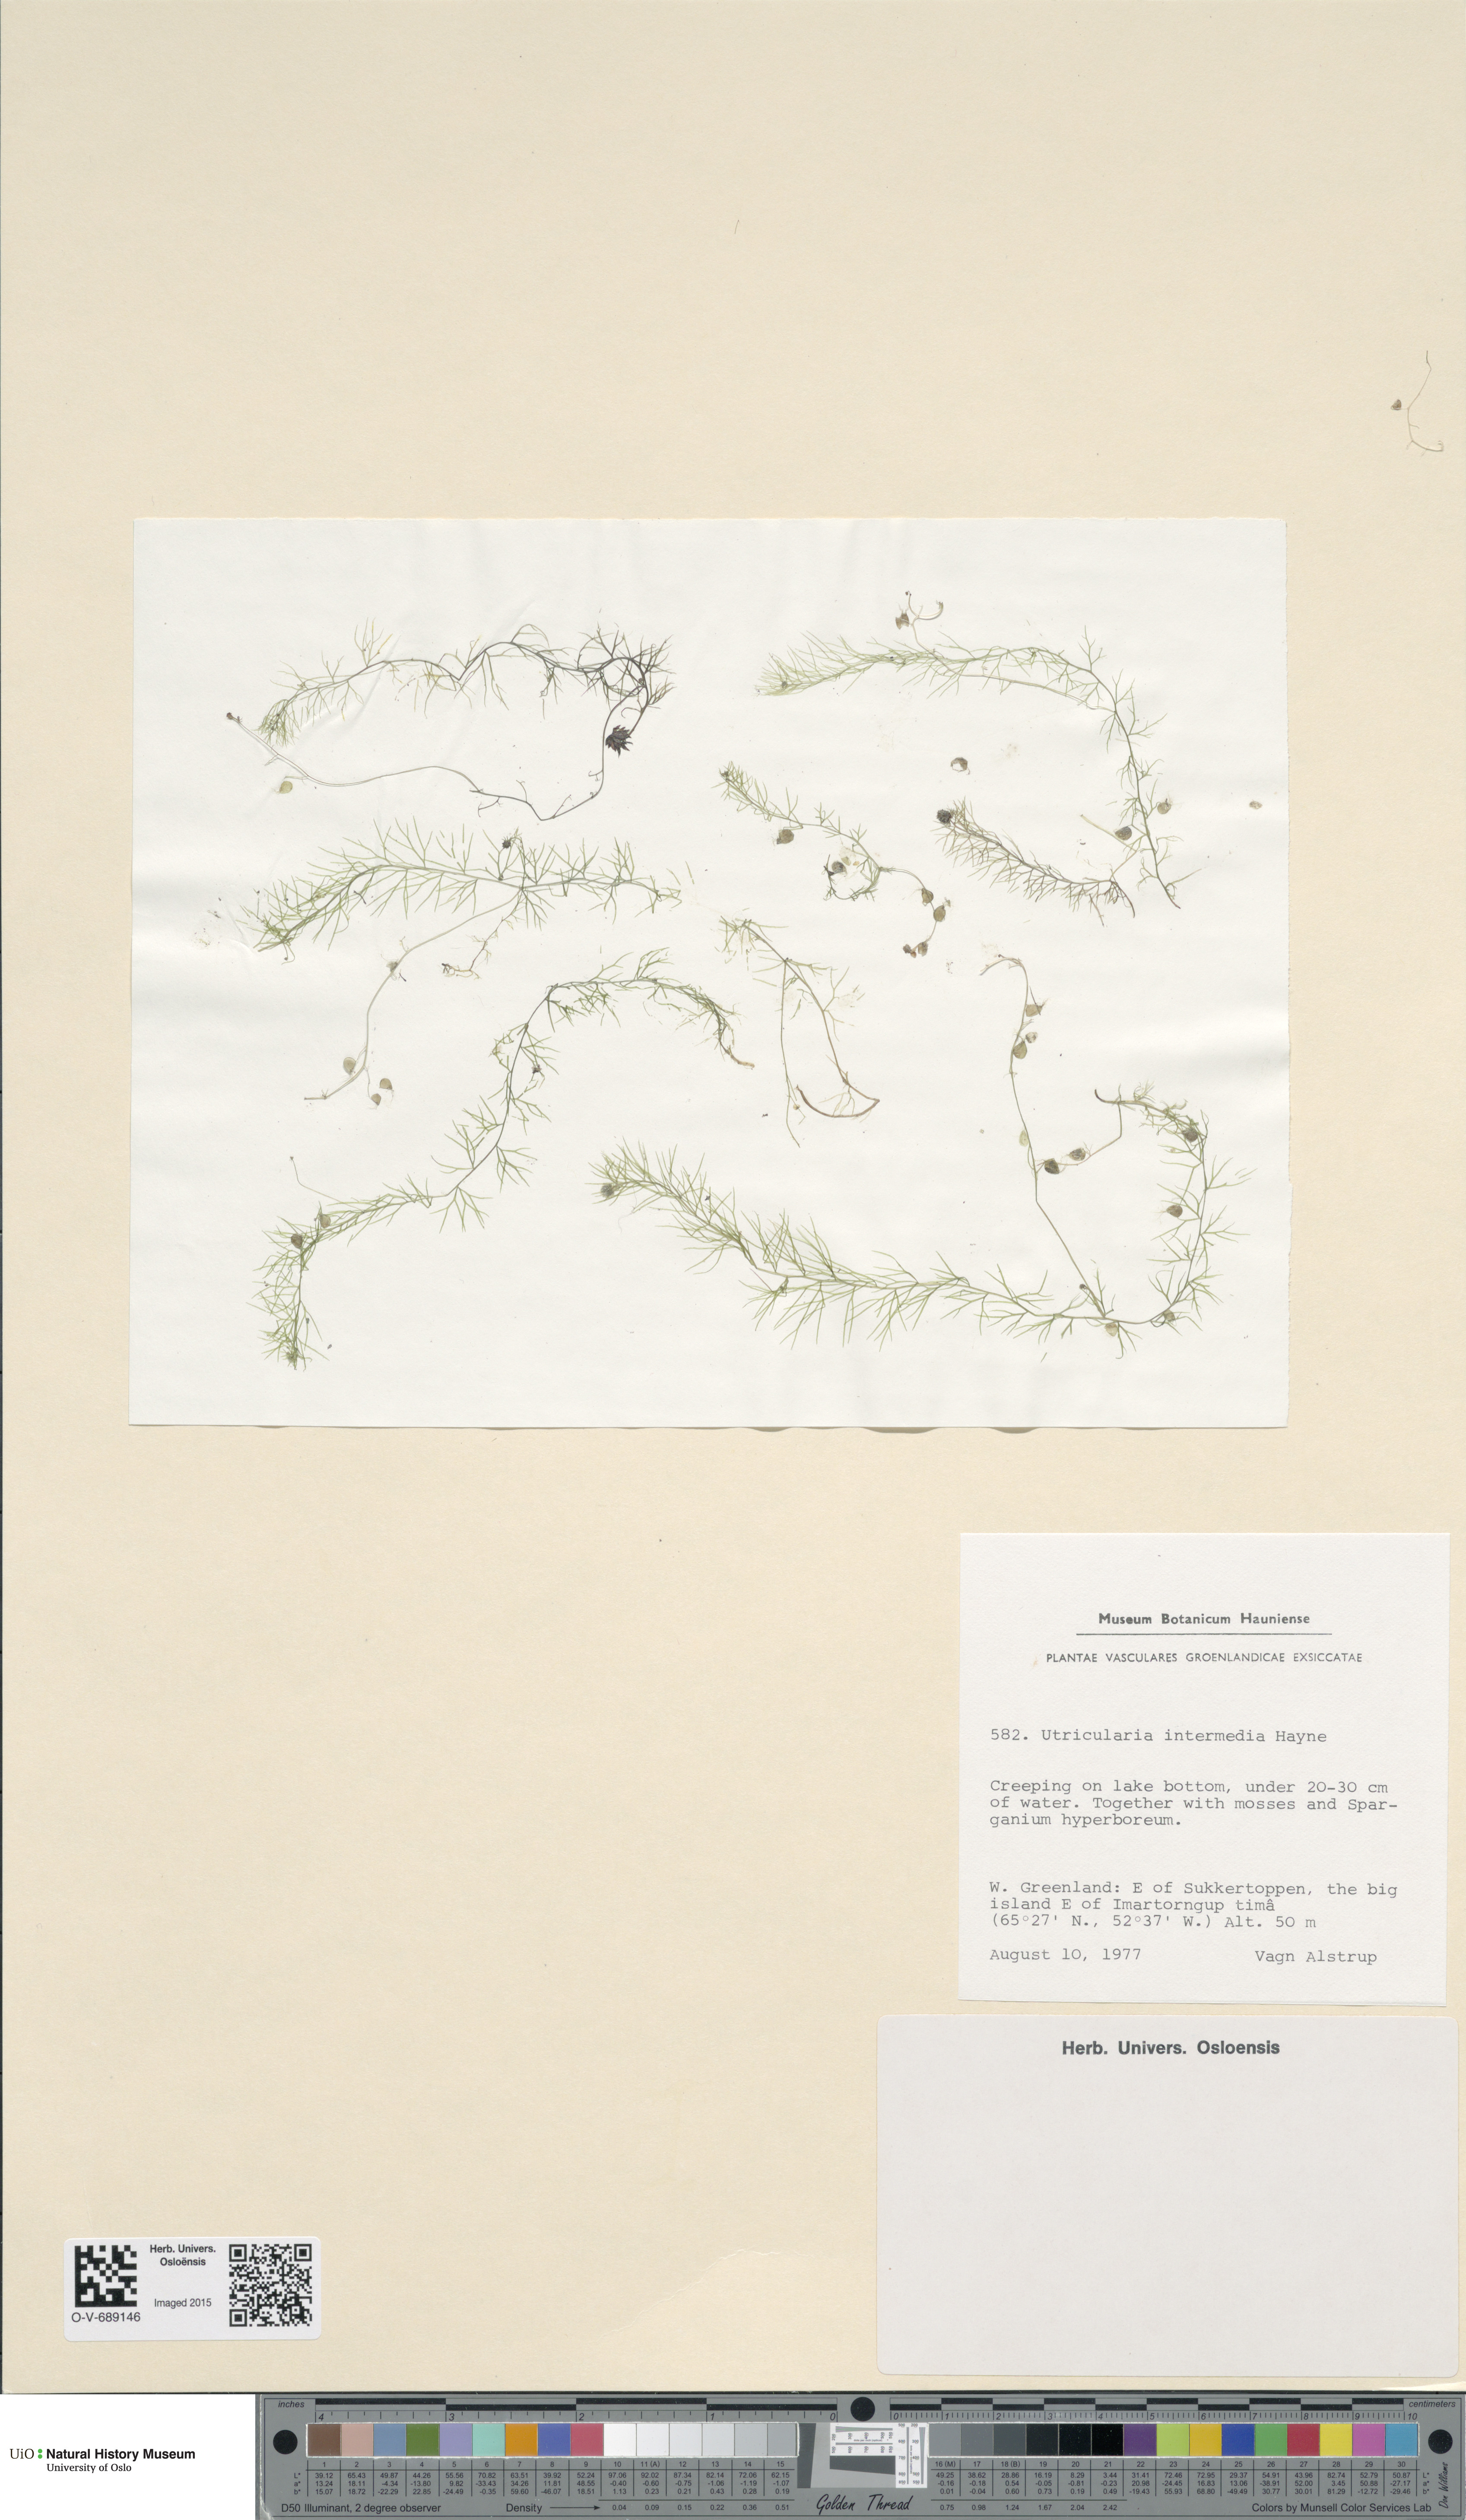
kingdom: Plantae
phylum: Tracheophyta
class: Magnoliopsida
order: Lamiales
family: Lentibulariaceae
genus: Utricularia
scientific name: Utricularia intermedia
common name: Intermediate bladderwort
